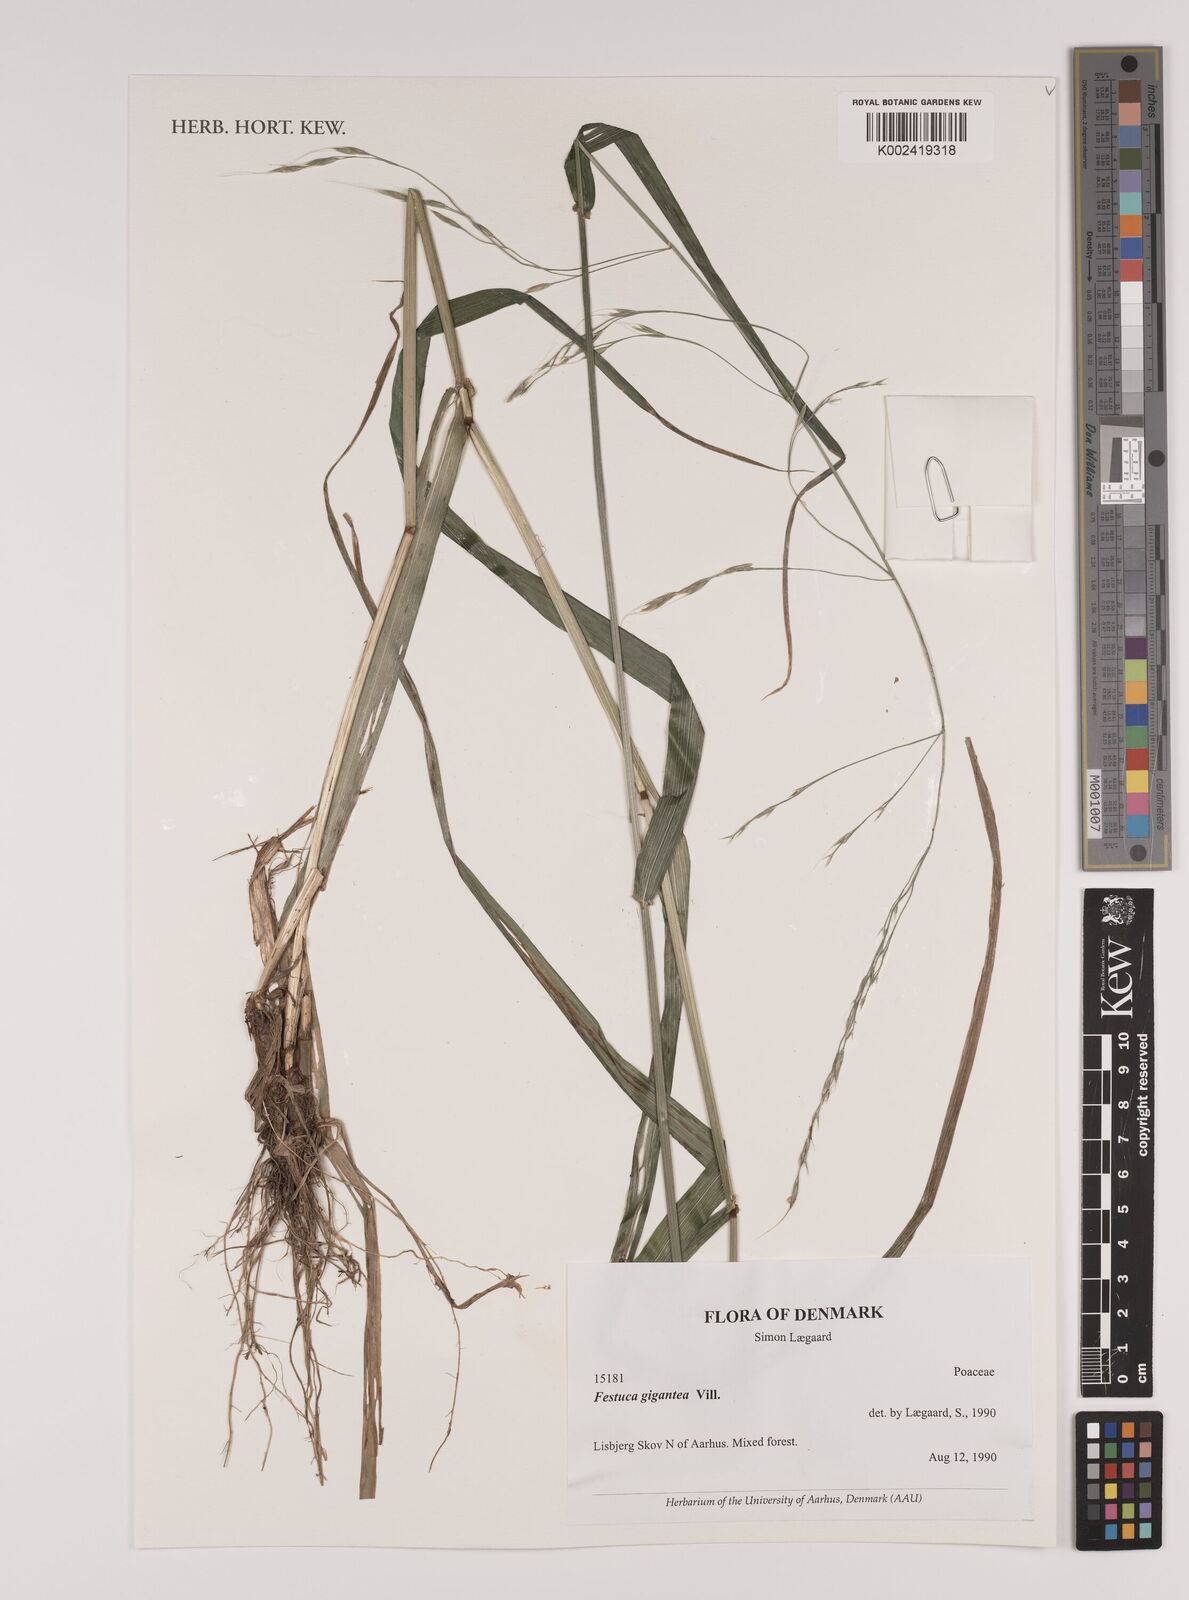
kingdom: Plantae
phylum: Tracheophyta
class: Liliopsida
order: Poales
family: Poaceae
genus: Lolium
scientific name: Lolium giganteum
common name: Giant fescue
